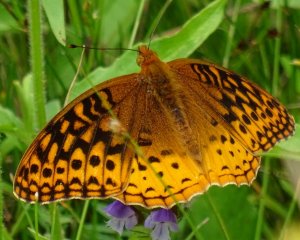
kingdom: Animalia
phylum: Arthropoda
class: Insecta
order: Lepidoptera
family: Nymphalidae
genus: Speyeria
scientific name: Speyeria cybele
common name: Great Spangled Fritillary
